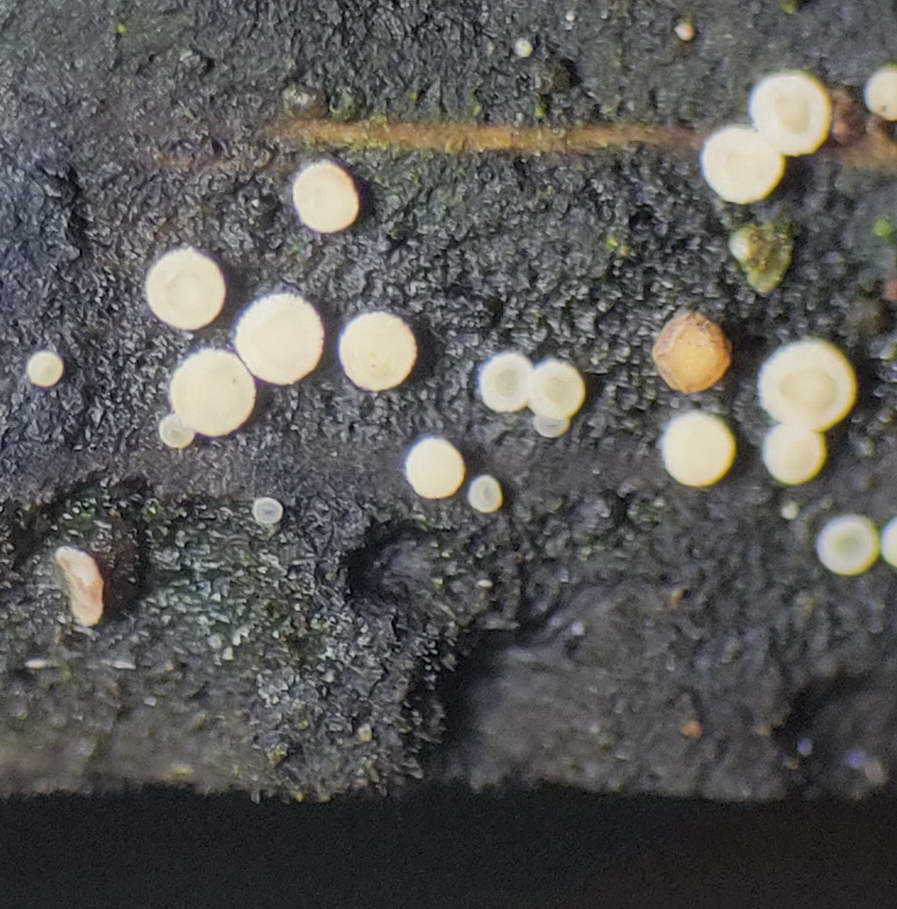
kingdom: Fungi
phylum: Ascomycota
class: Leotiomycetes
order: Helotiales
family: Helotiaceae
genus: Bispora
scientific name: Bispora pallescens
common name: måtte-snitskive
